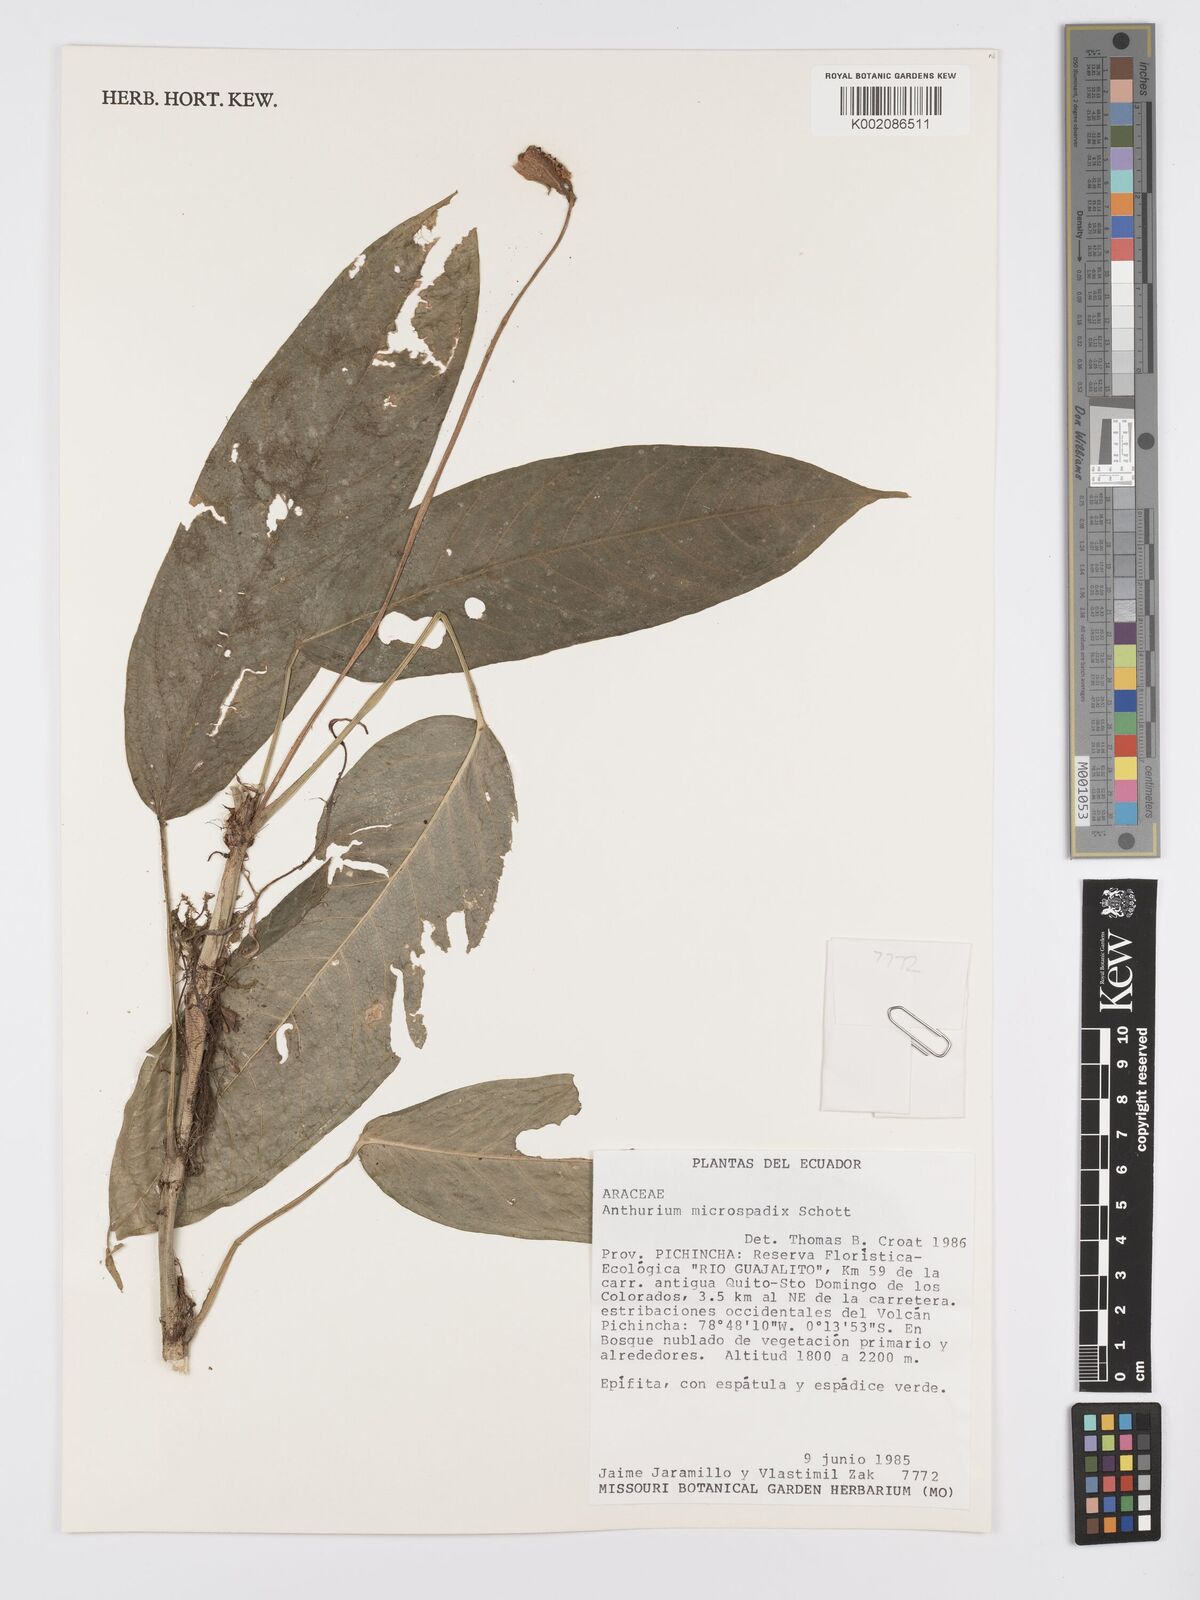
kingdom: Plantae
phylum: Tracheophyta
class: Liliopsida
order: Alismatales
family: Araceae
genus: Anthurium
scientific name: Anthurium microspadix
